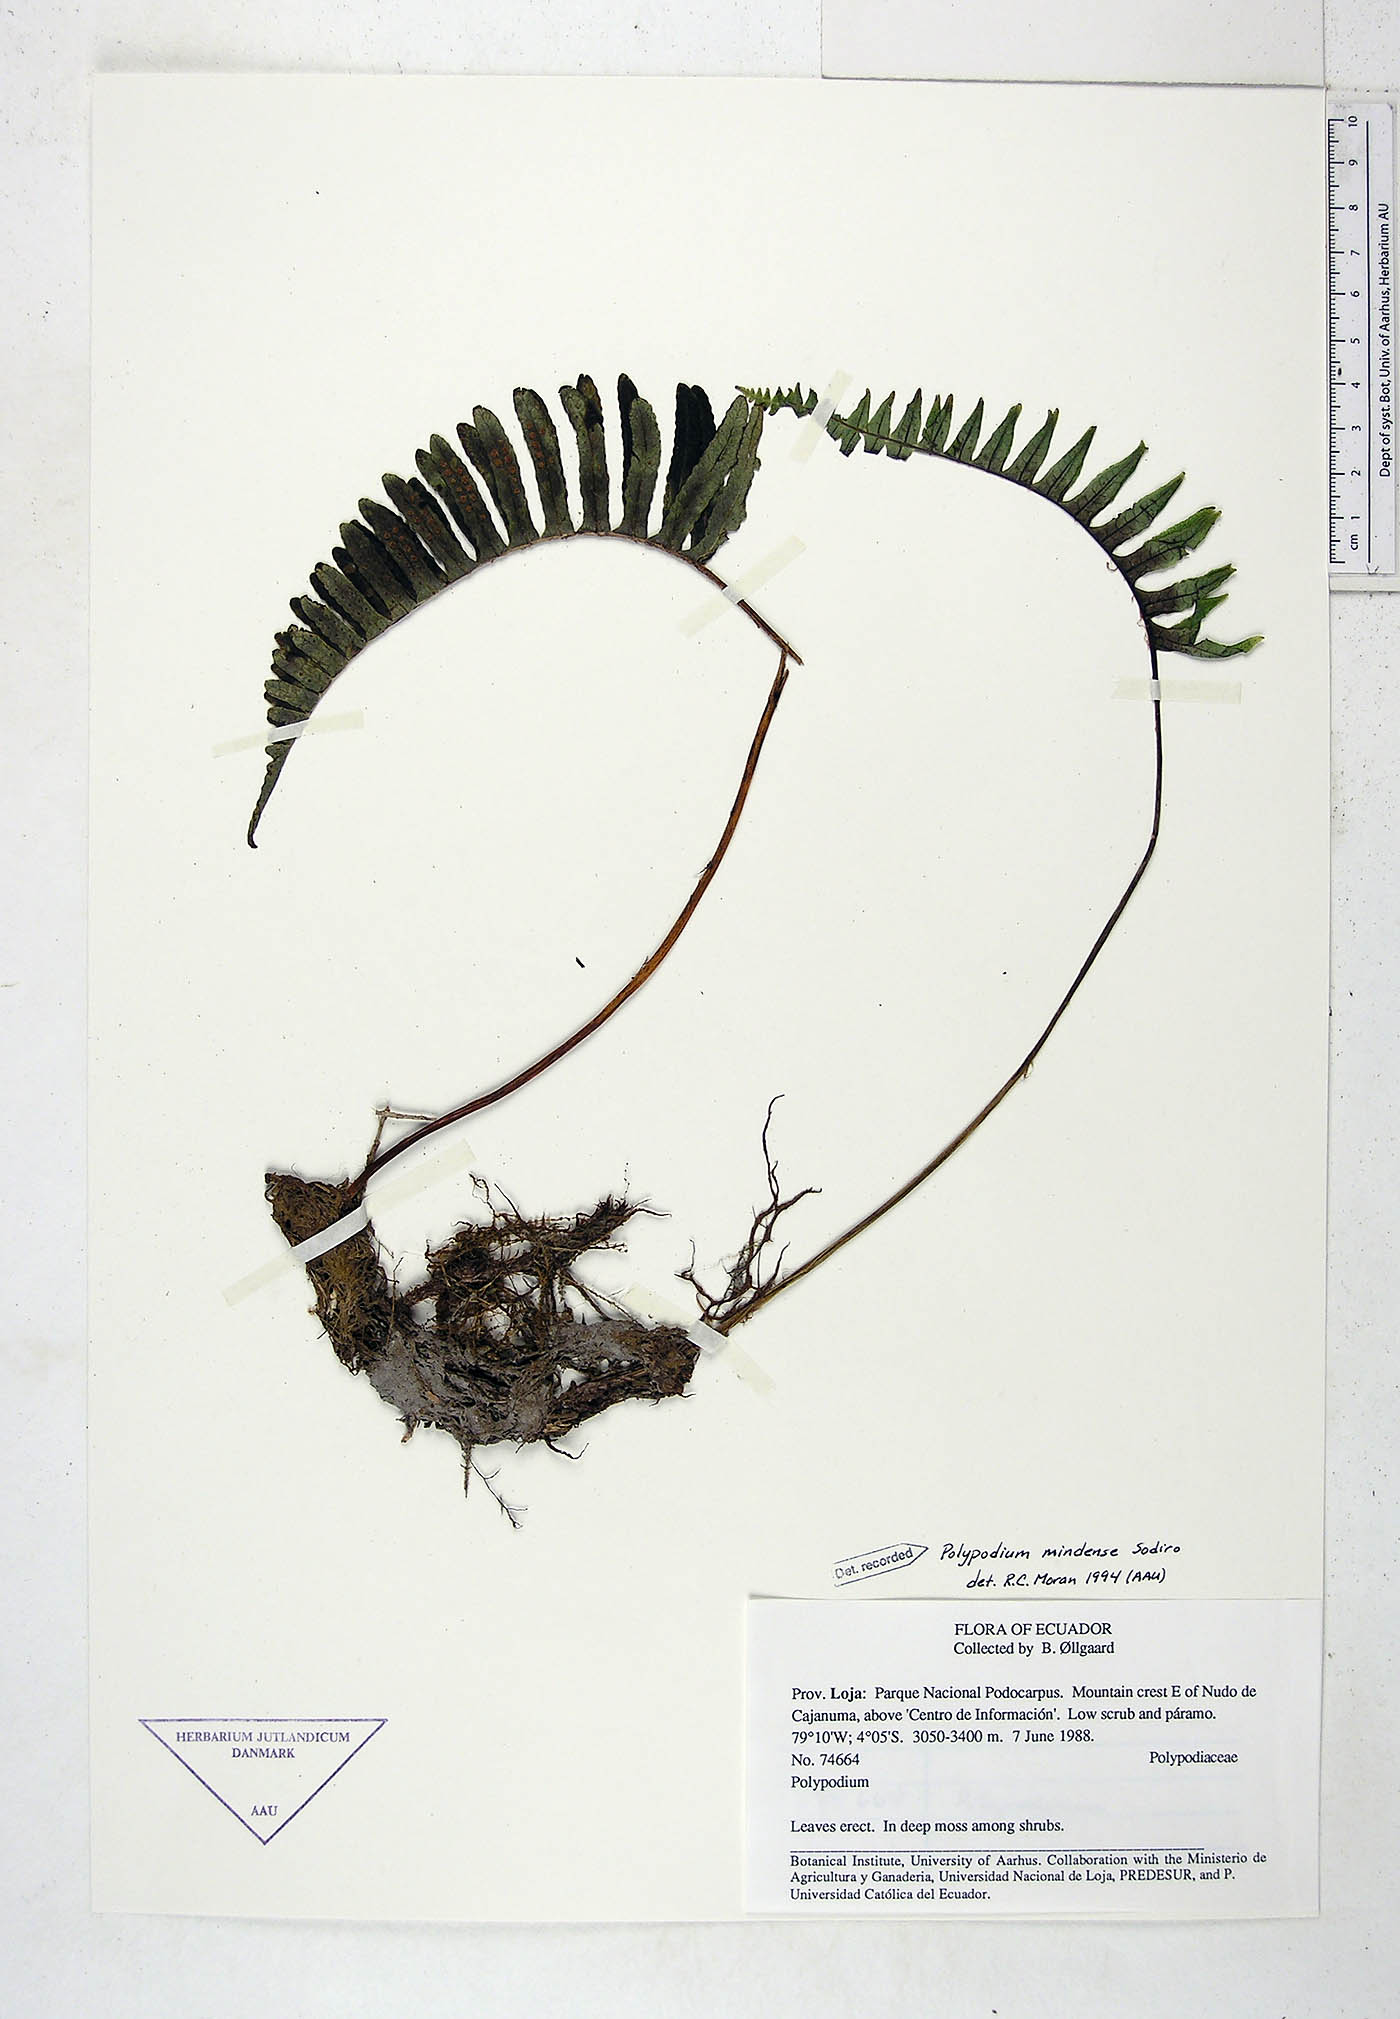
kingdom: Plantae
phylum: Tracheophyta
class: Polypodiopsida
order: Polypodiales
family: Polypodiaceae
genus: Serpocaulon
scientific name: Serpocaulon eleutherophlebium
